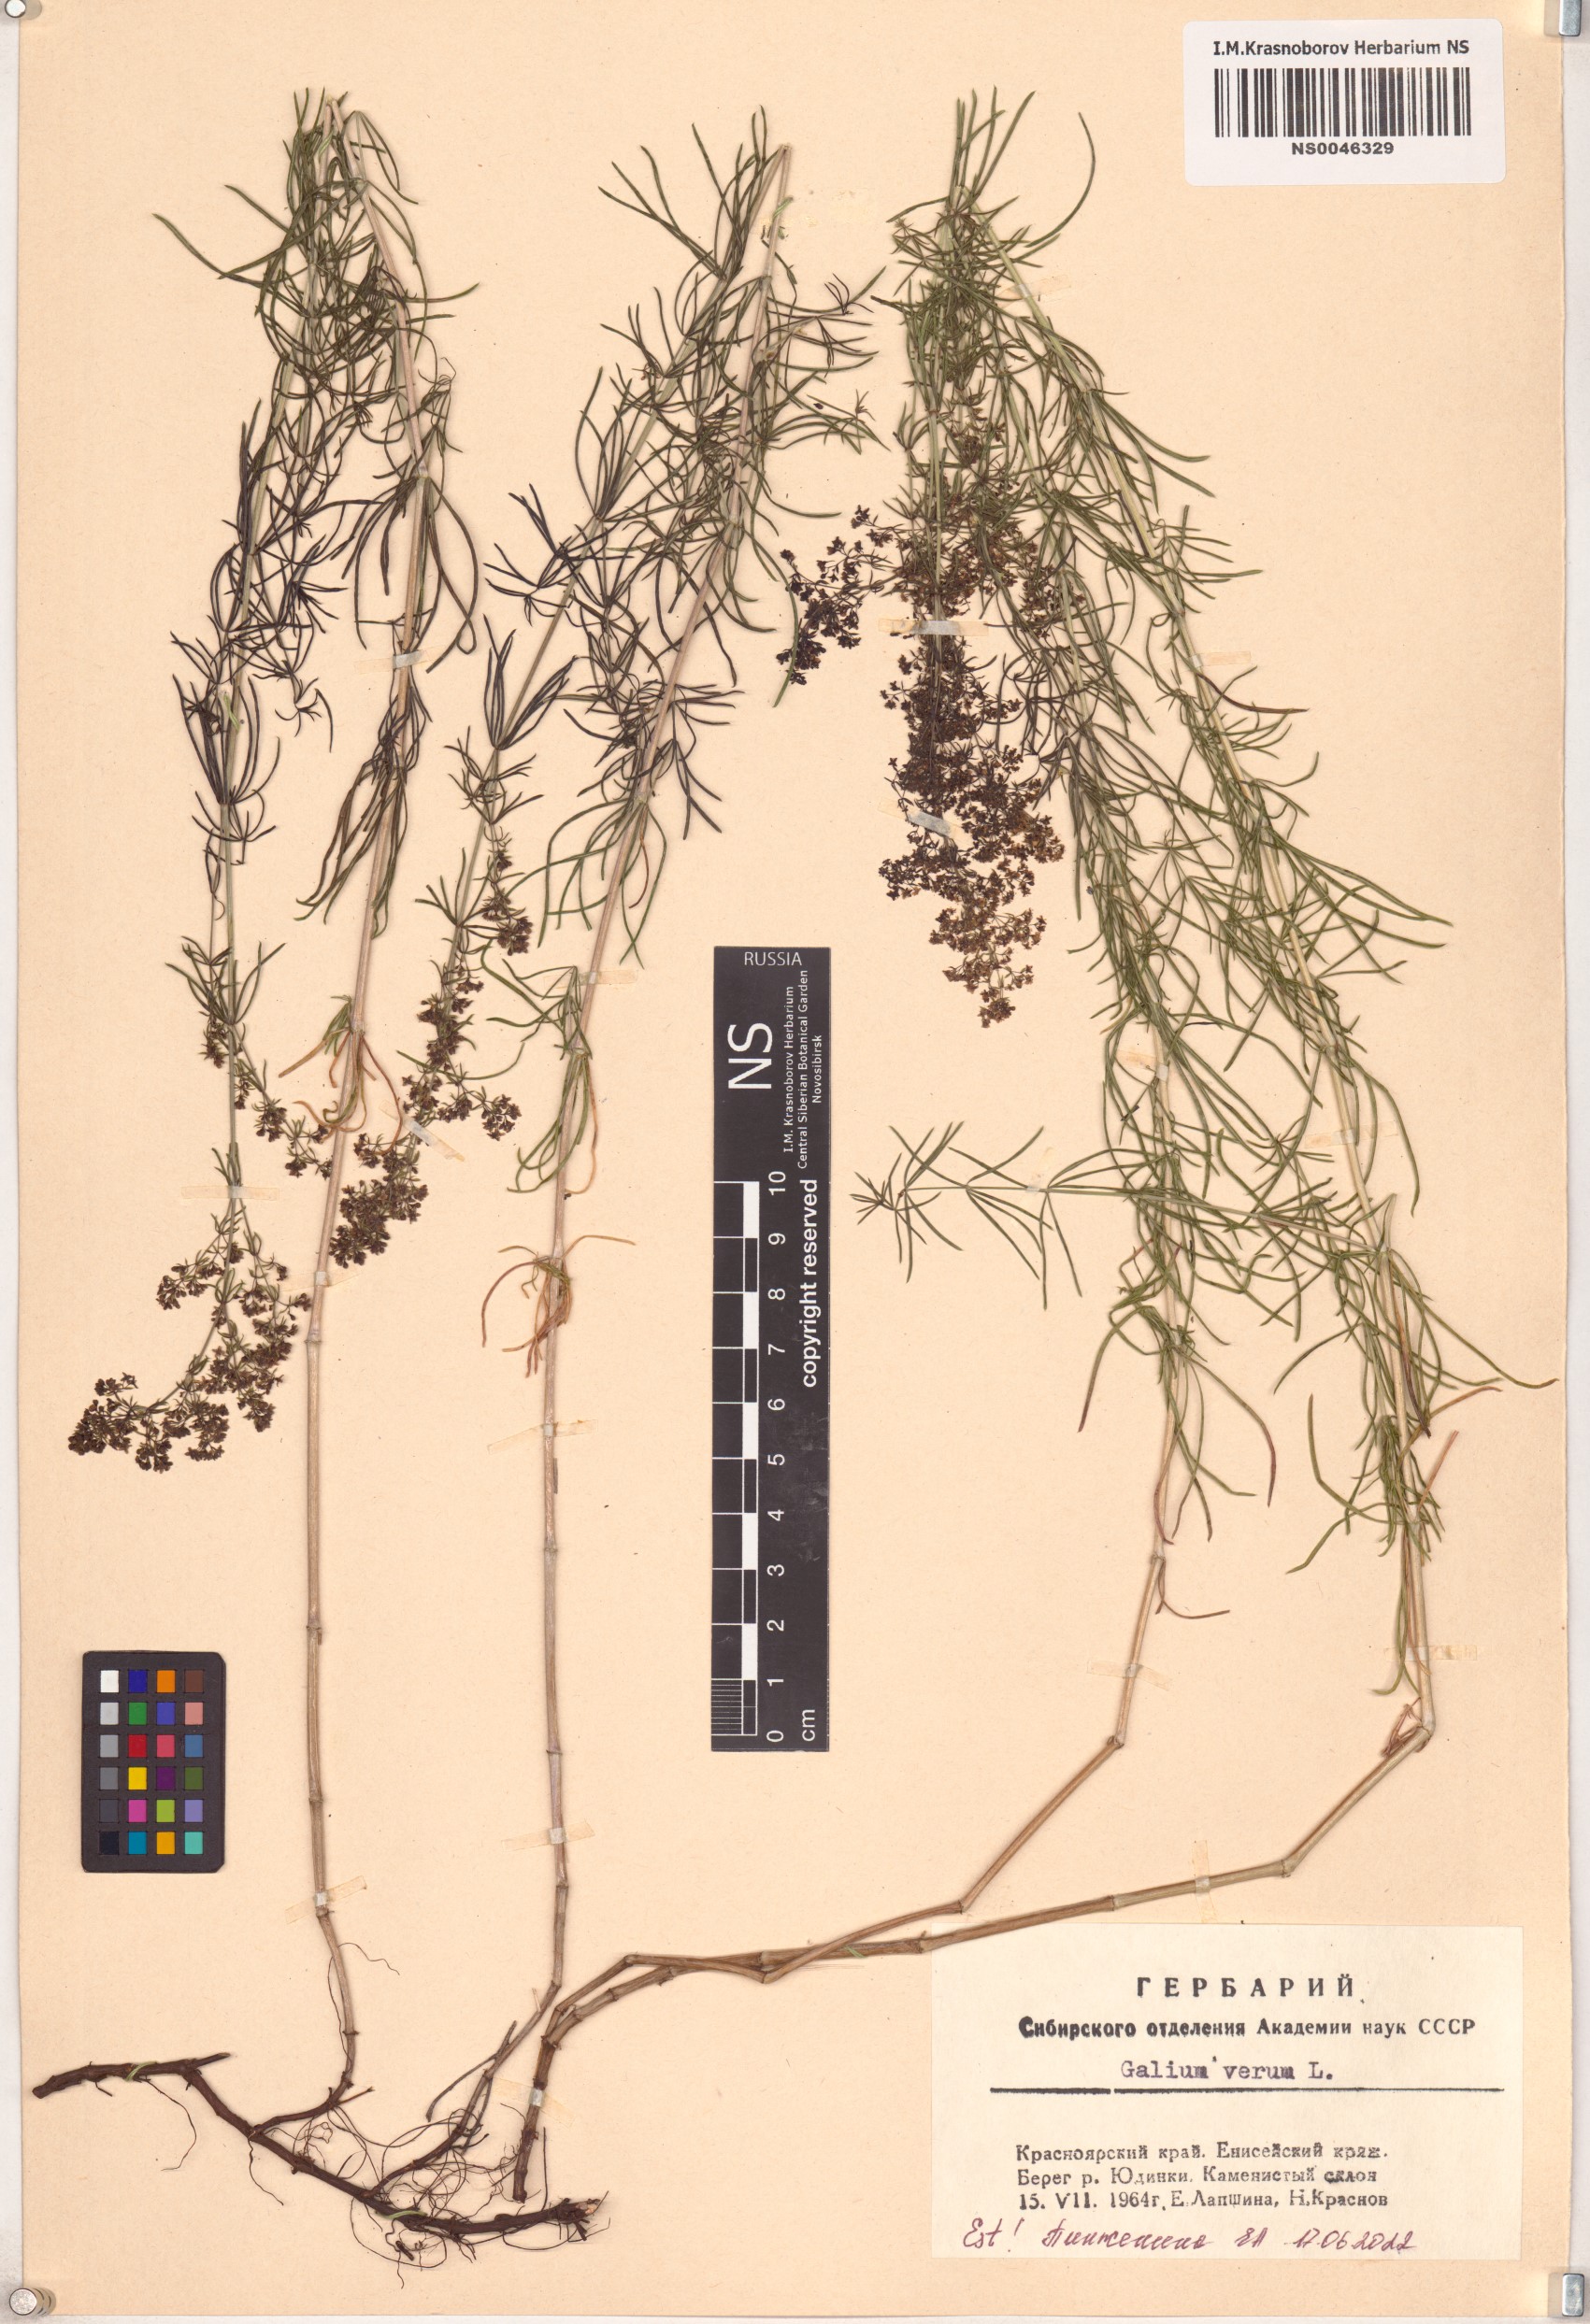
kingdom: Plantae
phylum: Tracheophyta
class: Magnoliopsida
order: Gentianales
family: Rubiaceae
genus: Galium
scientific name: Galium verum
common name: Lady's bedstraw
